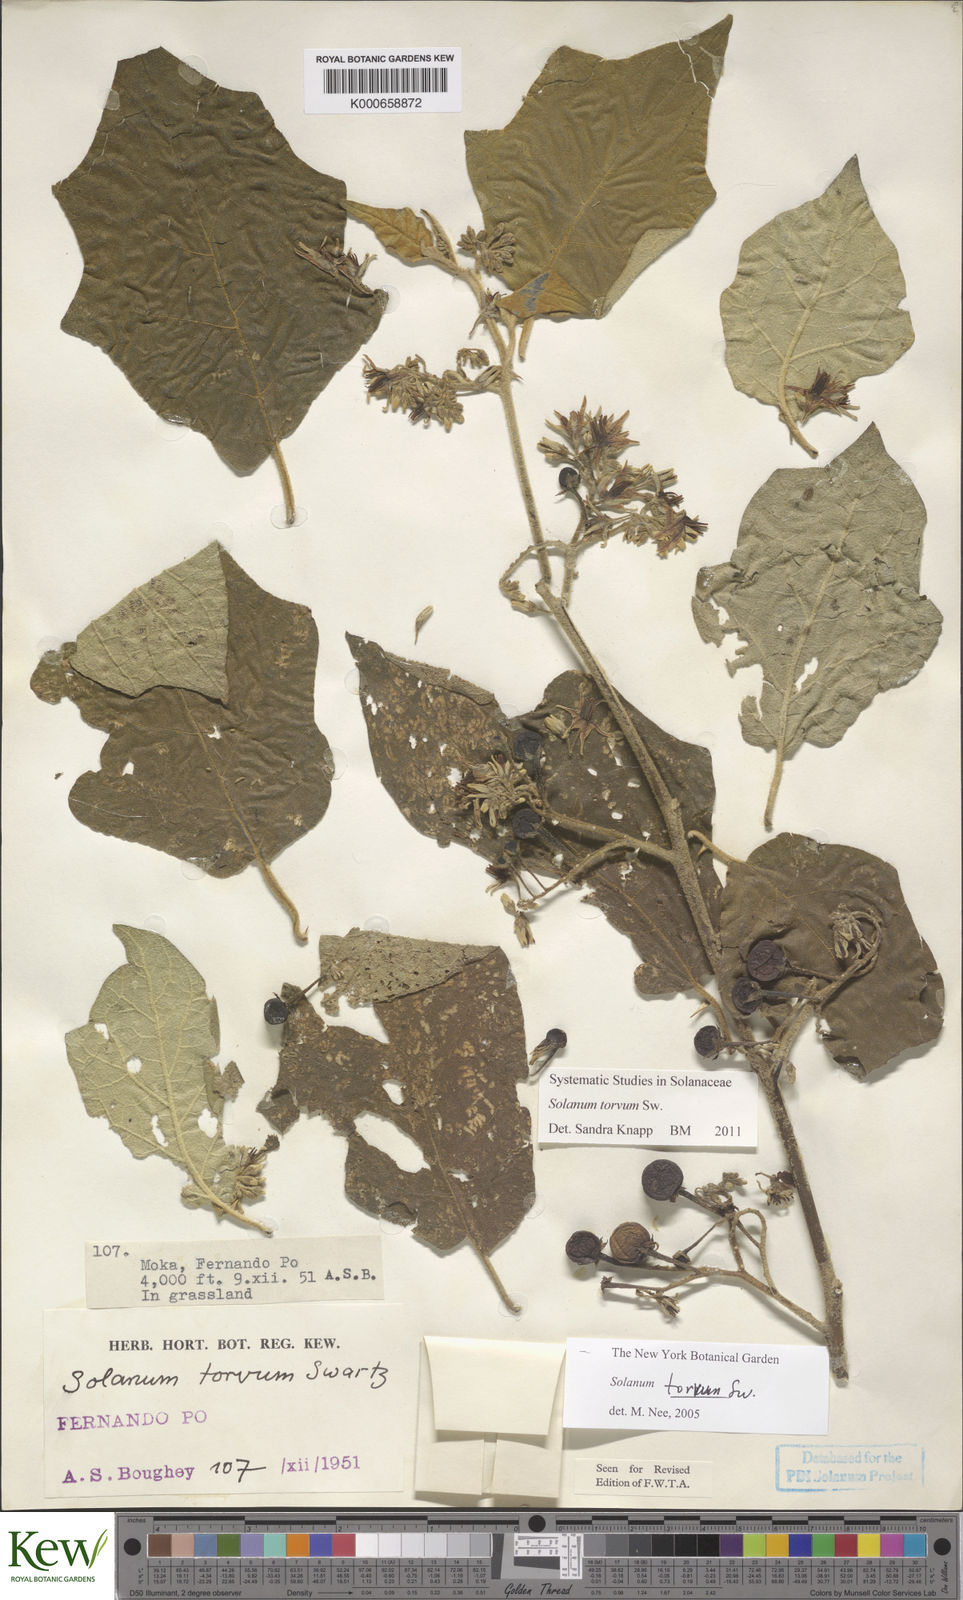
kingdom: Plantae
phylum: Tracheophyta
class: Magnoliopsida
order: Solanales
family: Solanaceae
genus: Solanum
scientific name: Solanum torvum
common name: Turkey berry
